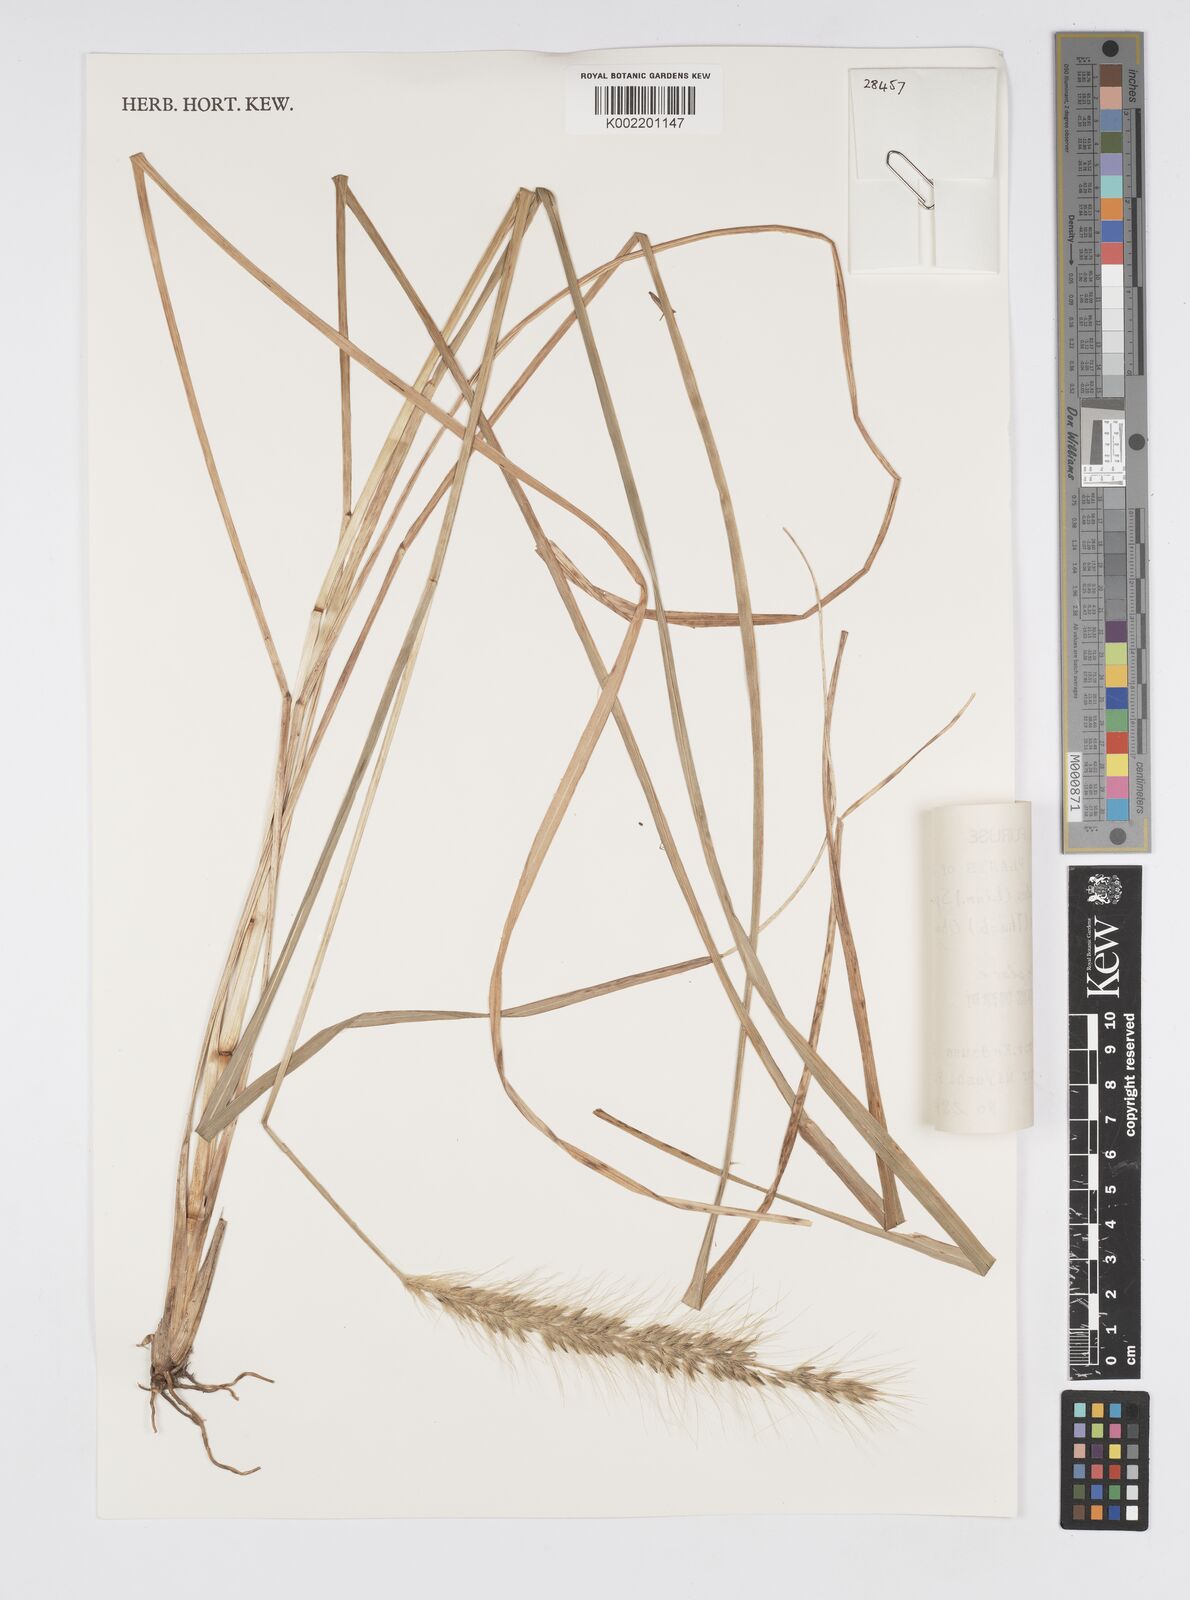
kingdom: Plantae
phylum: Tracheophyta
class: Liliopsida
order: Poales
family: Poaceae
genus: Cenchrus
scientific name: Cenchrus alopecuroides
